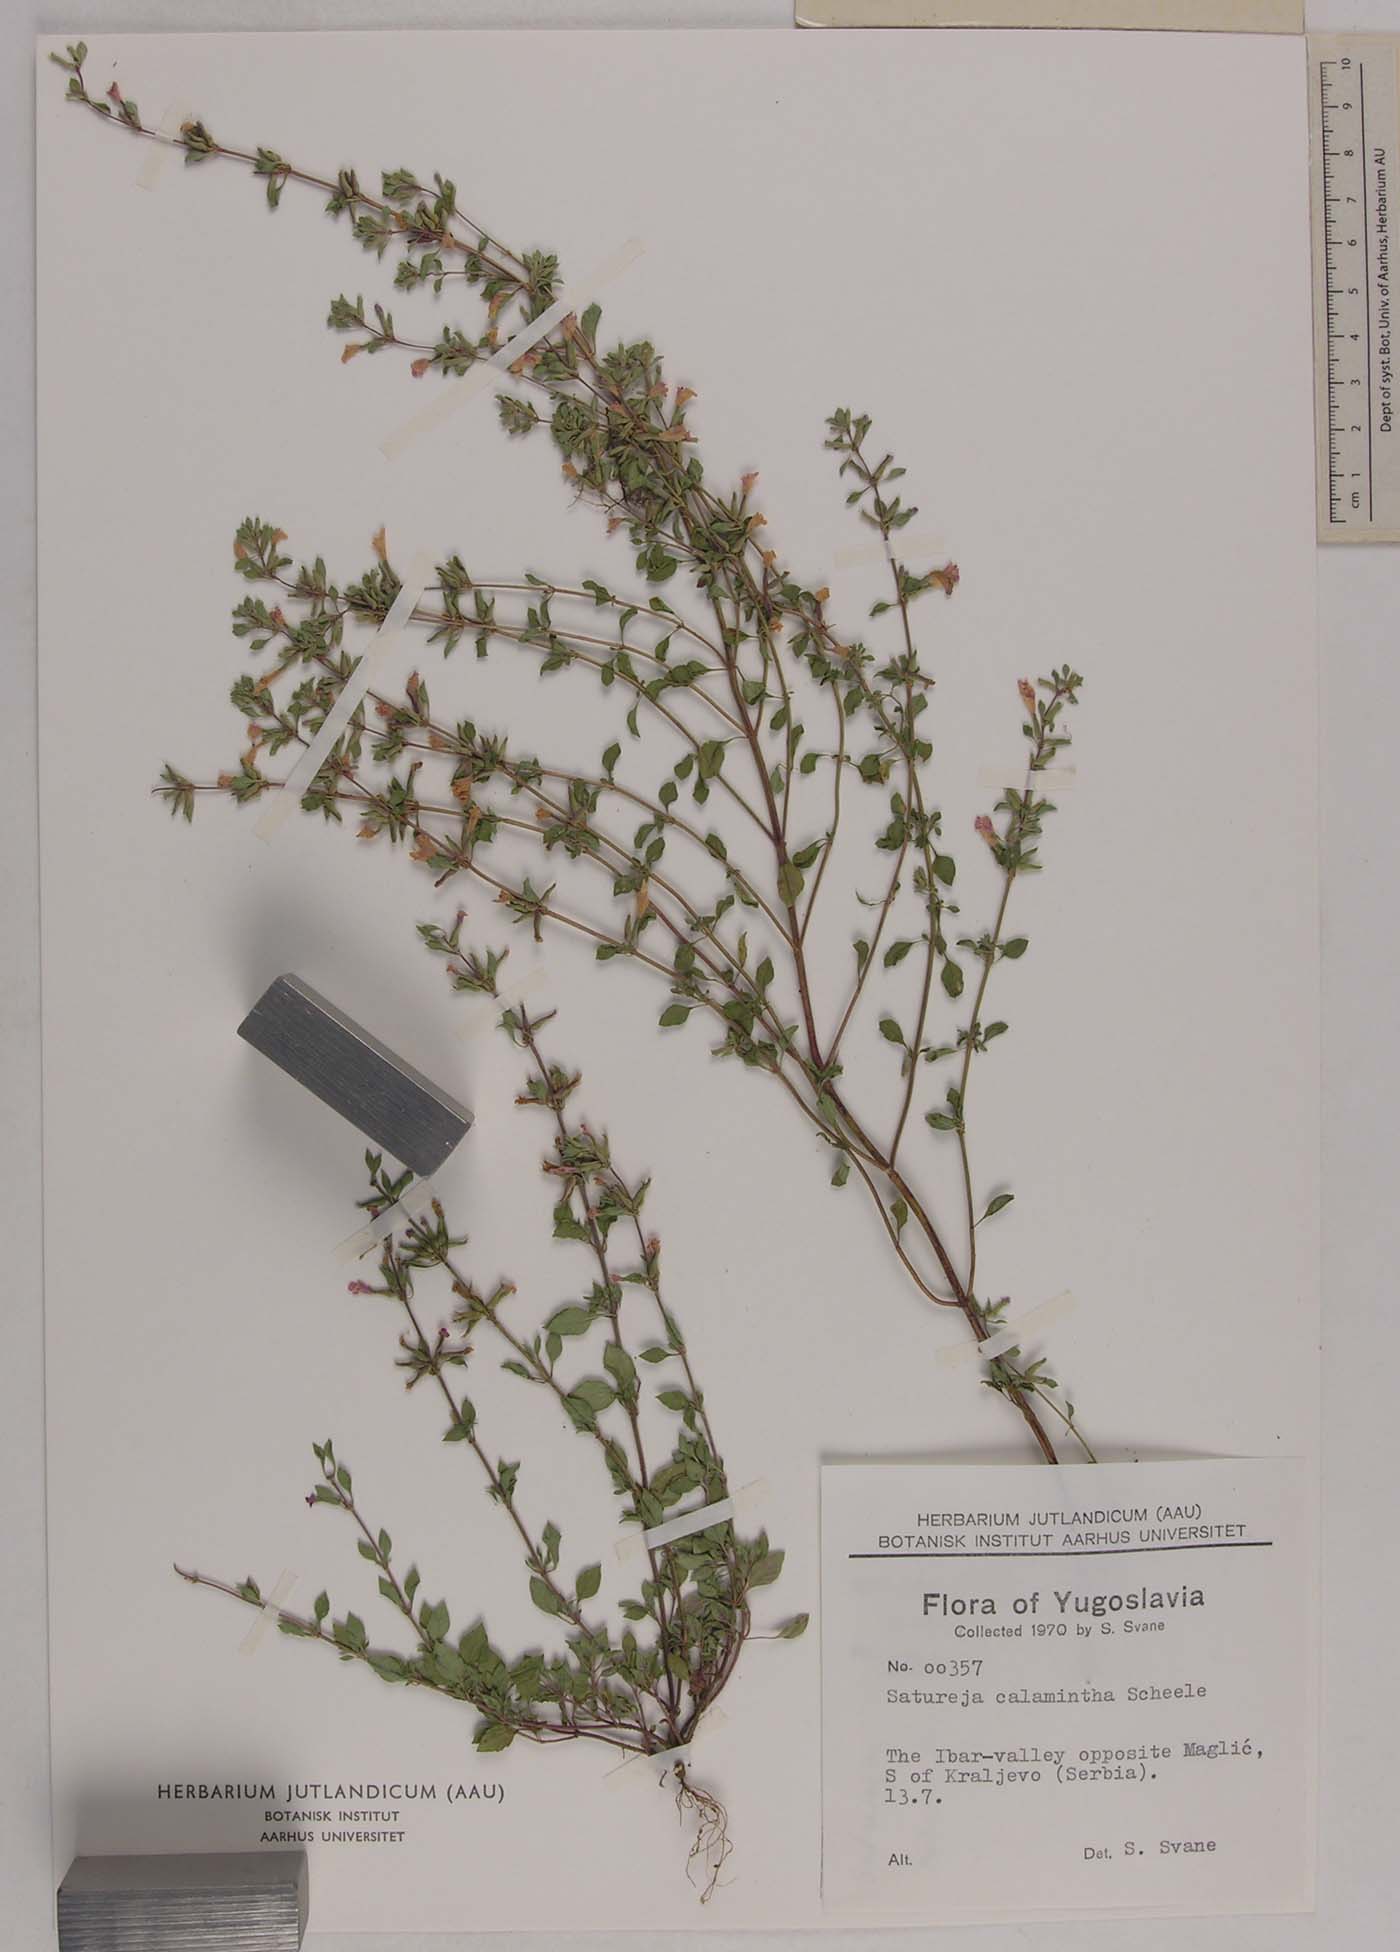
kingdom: Plantae
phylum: Tracheophyta
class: Magnoliopsida
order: Lamiales
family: Lamiaceae
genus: Clinopodium
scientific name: Clinopodium nepeta
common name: Lesser calamint
